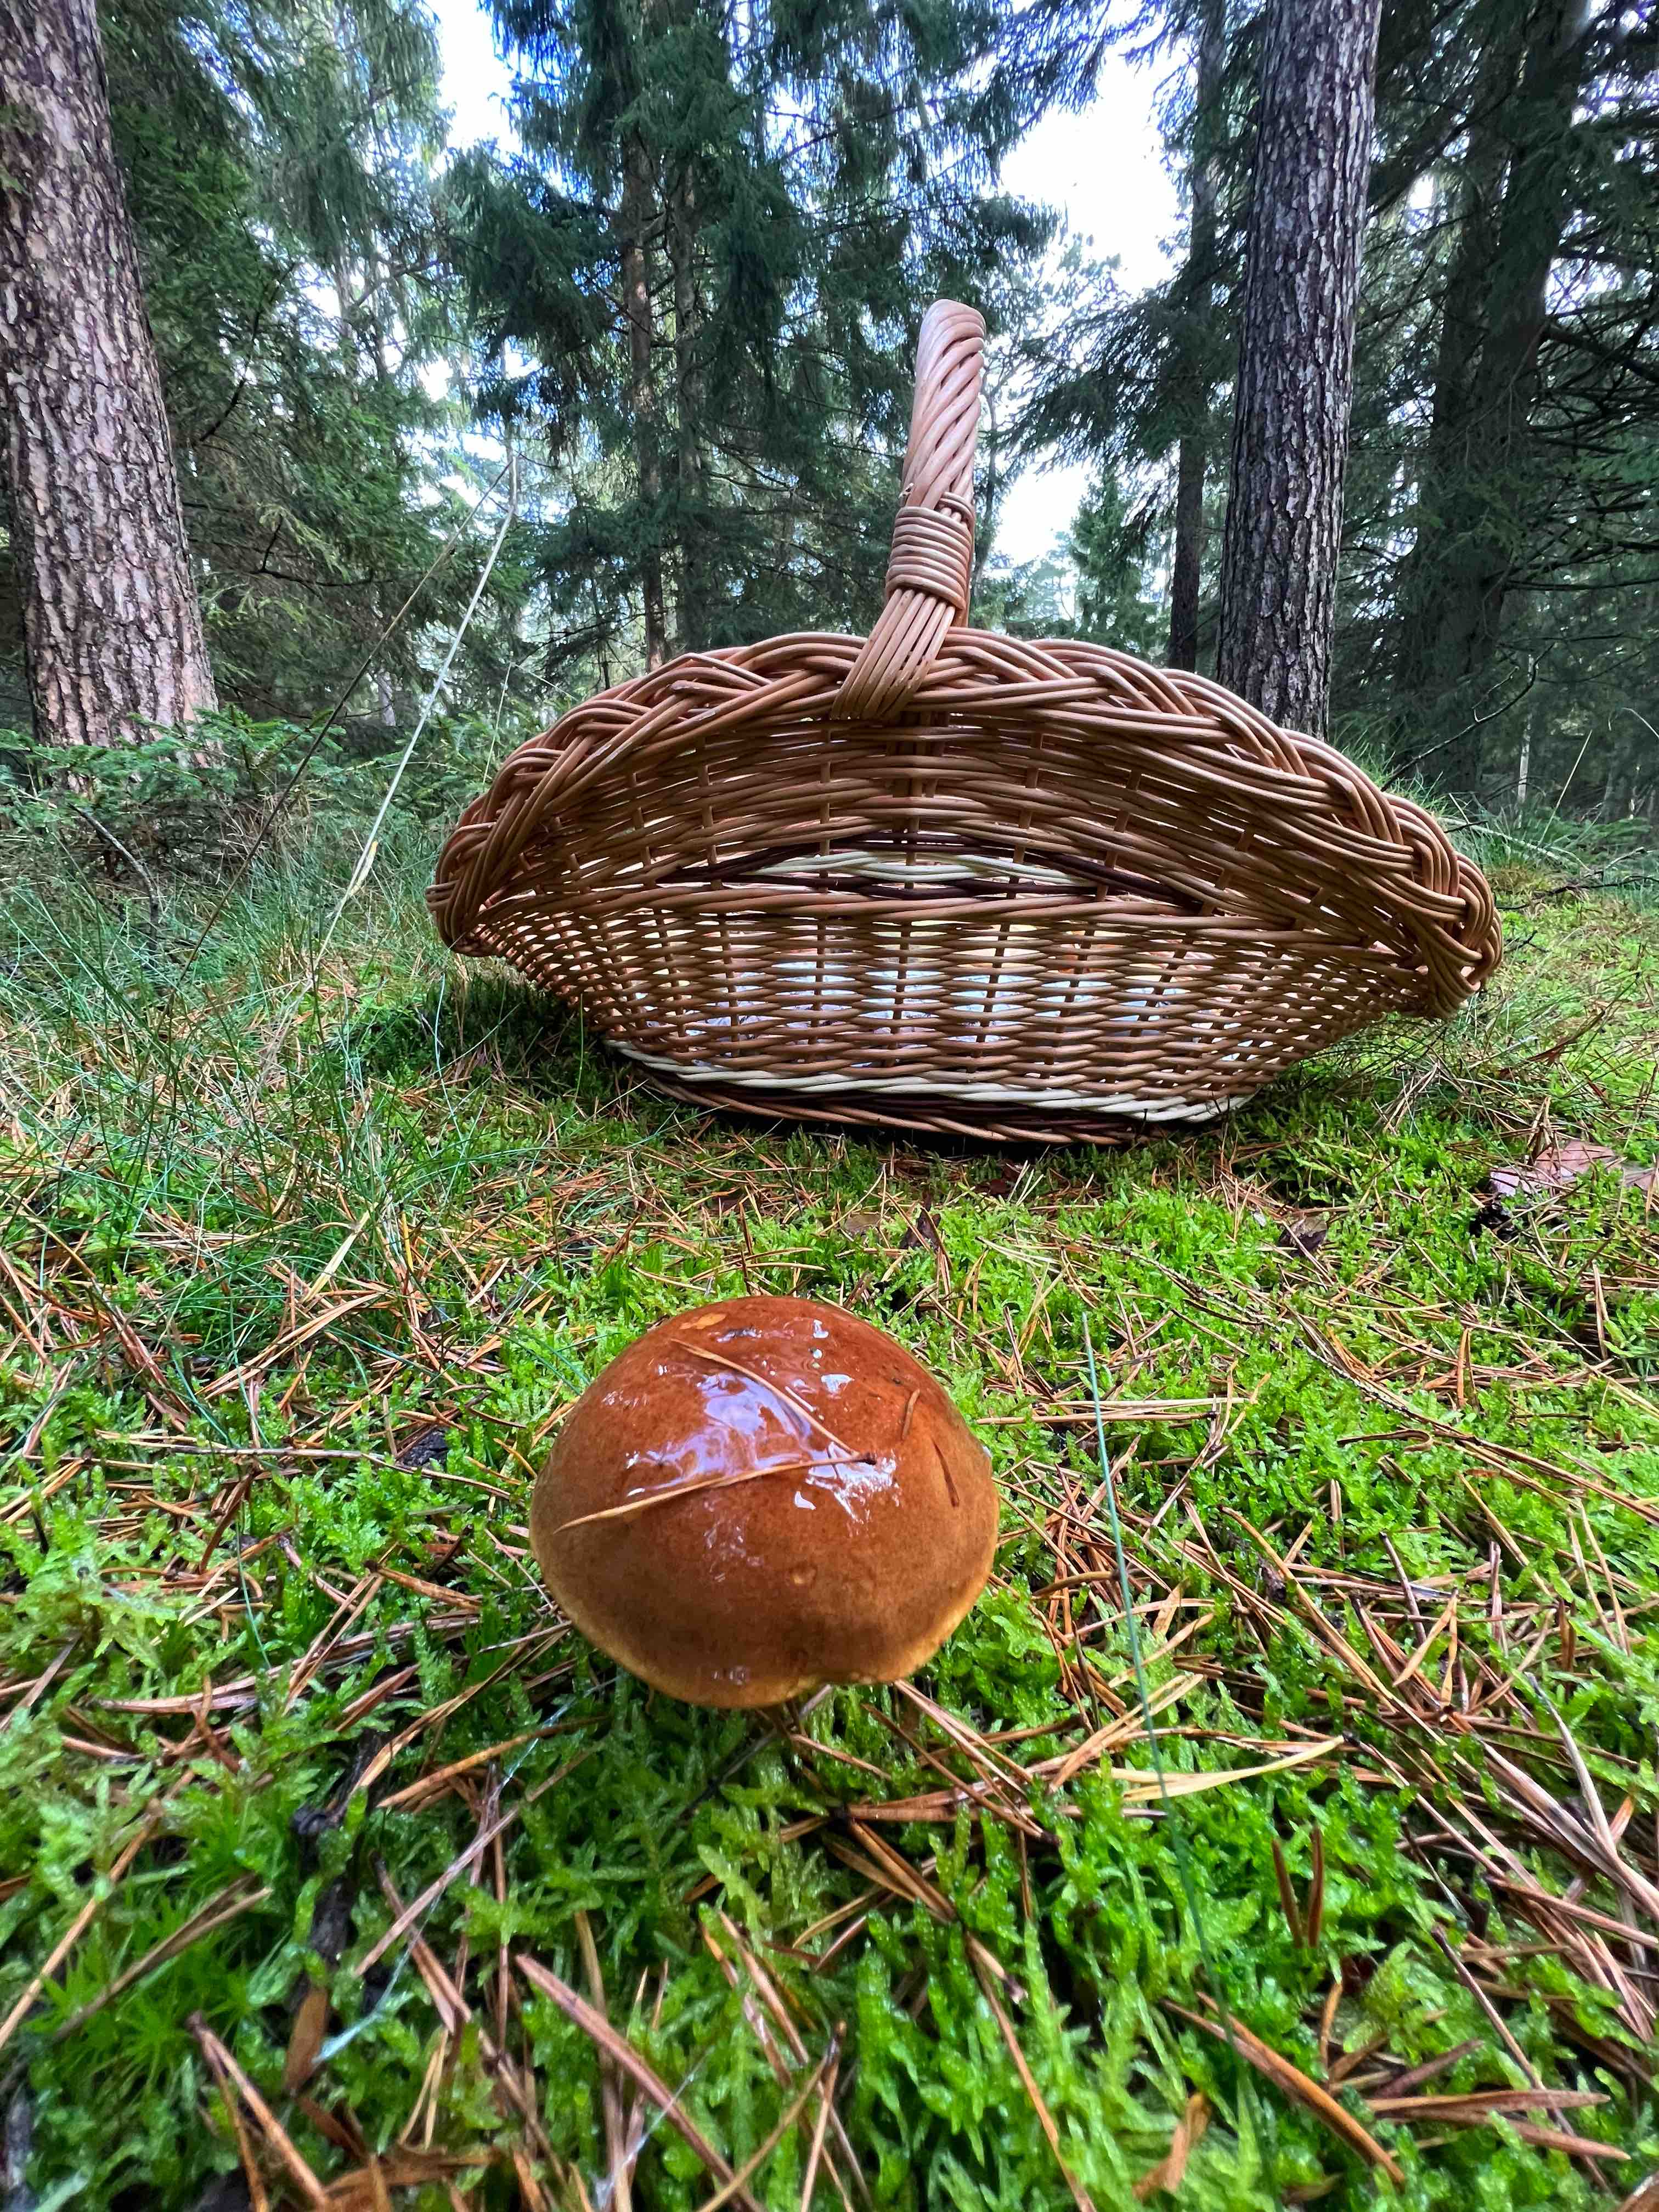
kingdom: Fungi
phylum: Basidiomycota
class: Agaricomycetes
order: Boletales
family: Boletaceae
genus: Imleria
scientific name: Imleria badia
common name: brunstokket rørhat
